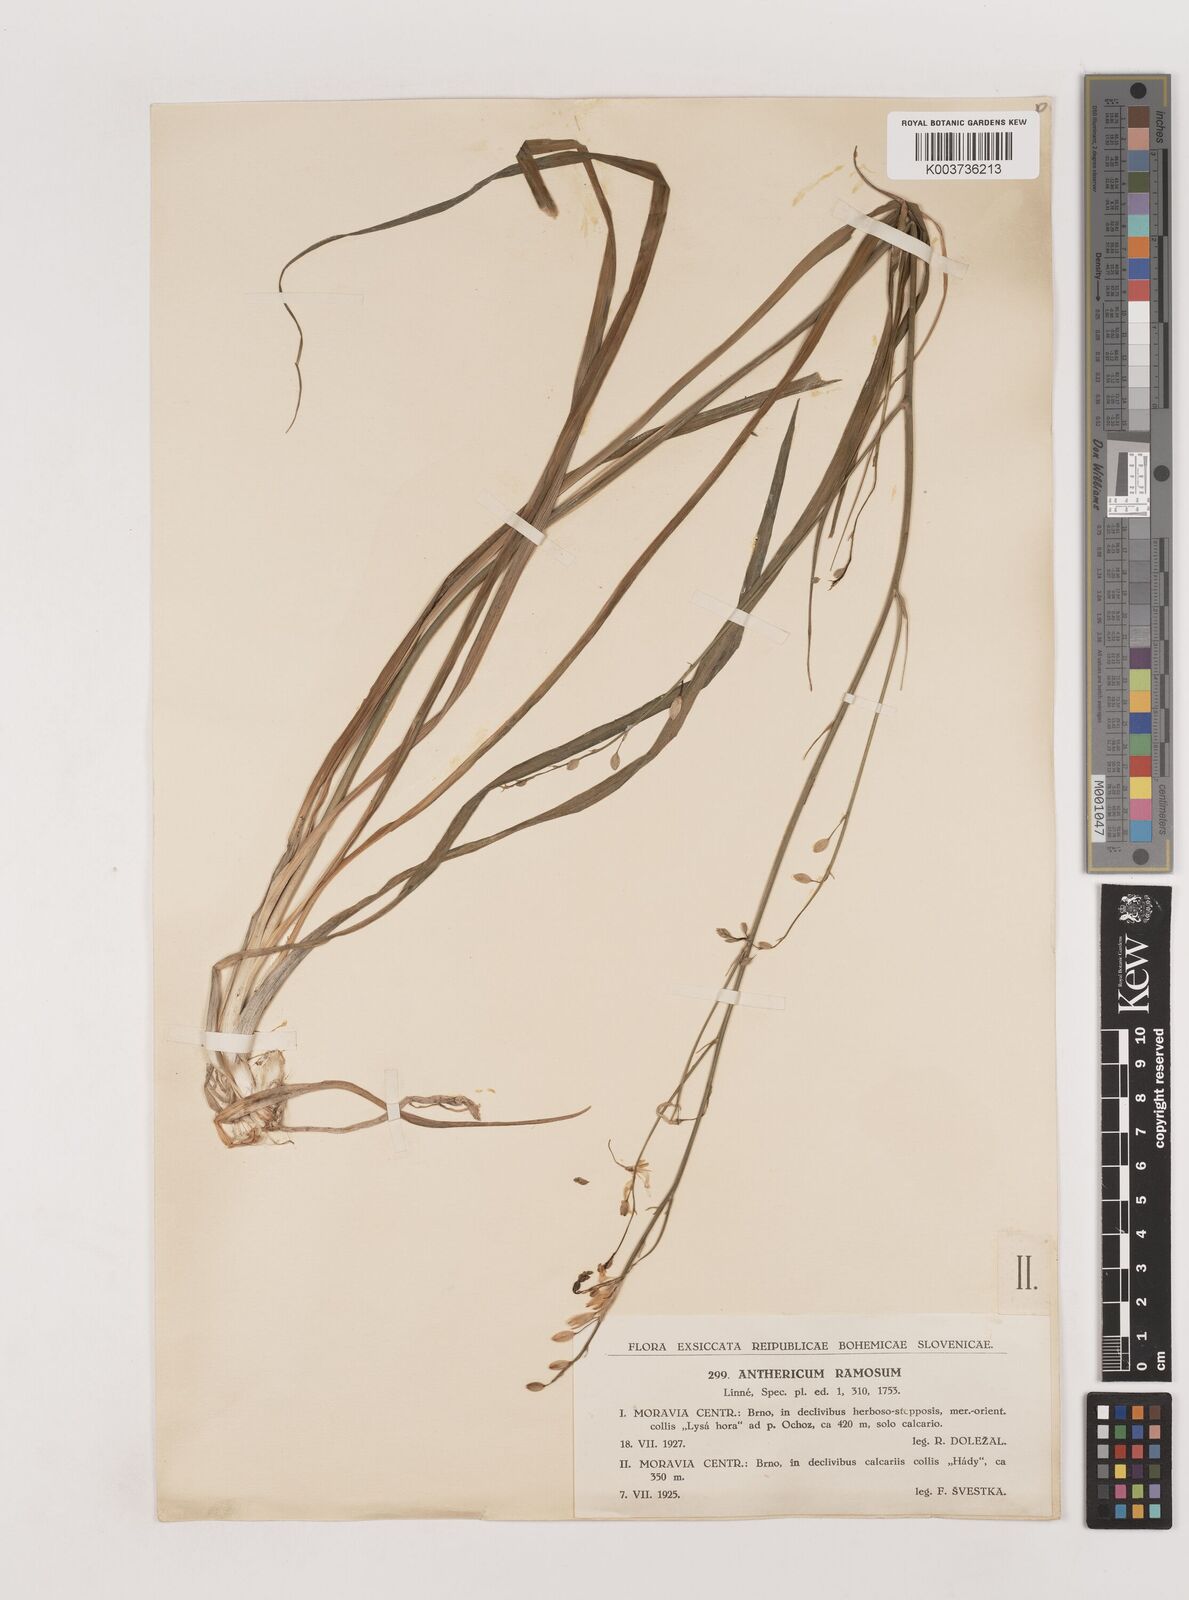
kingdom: Plantae
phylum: Tracheophyta
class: Liliopsida
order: Asparagales
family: Asparagaceae
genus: Chlorophytum
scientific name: Chlorophytum comosum
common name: Spider plant
